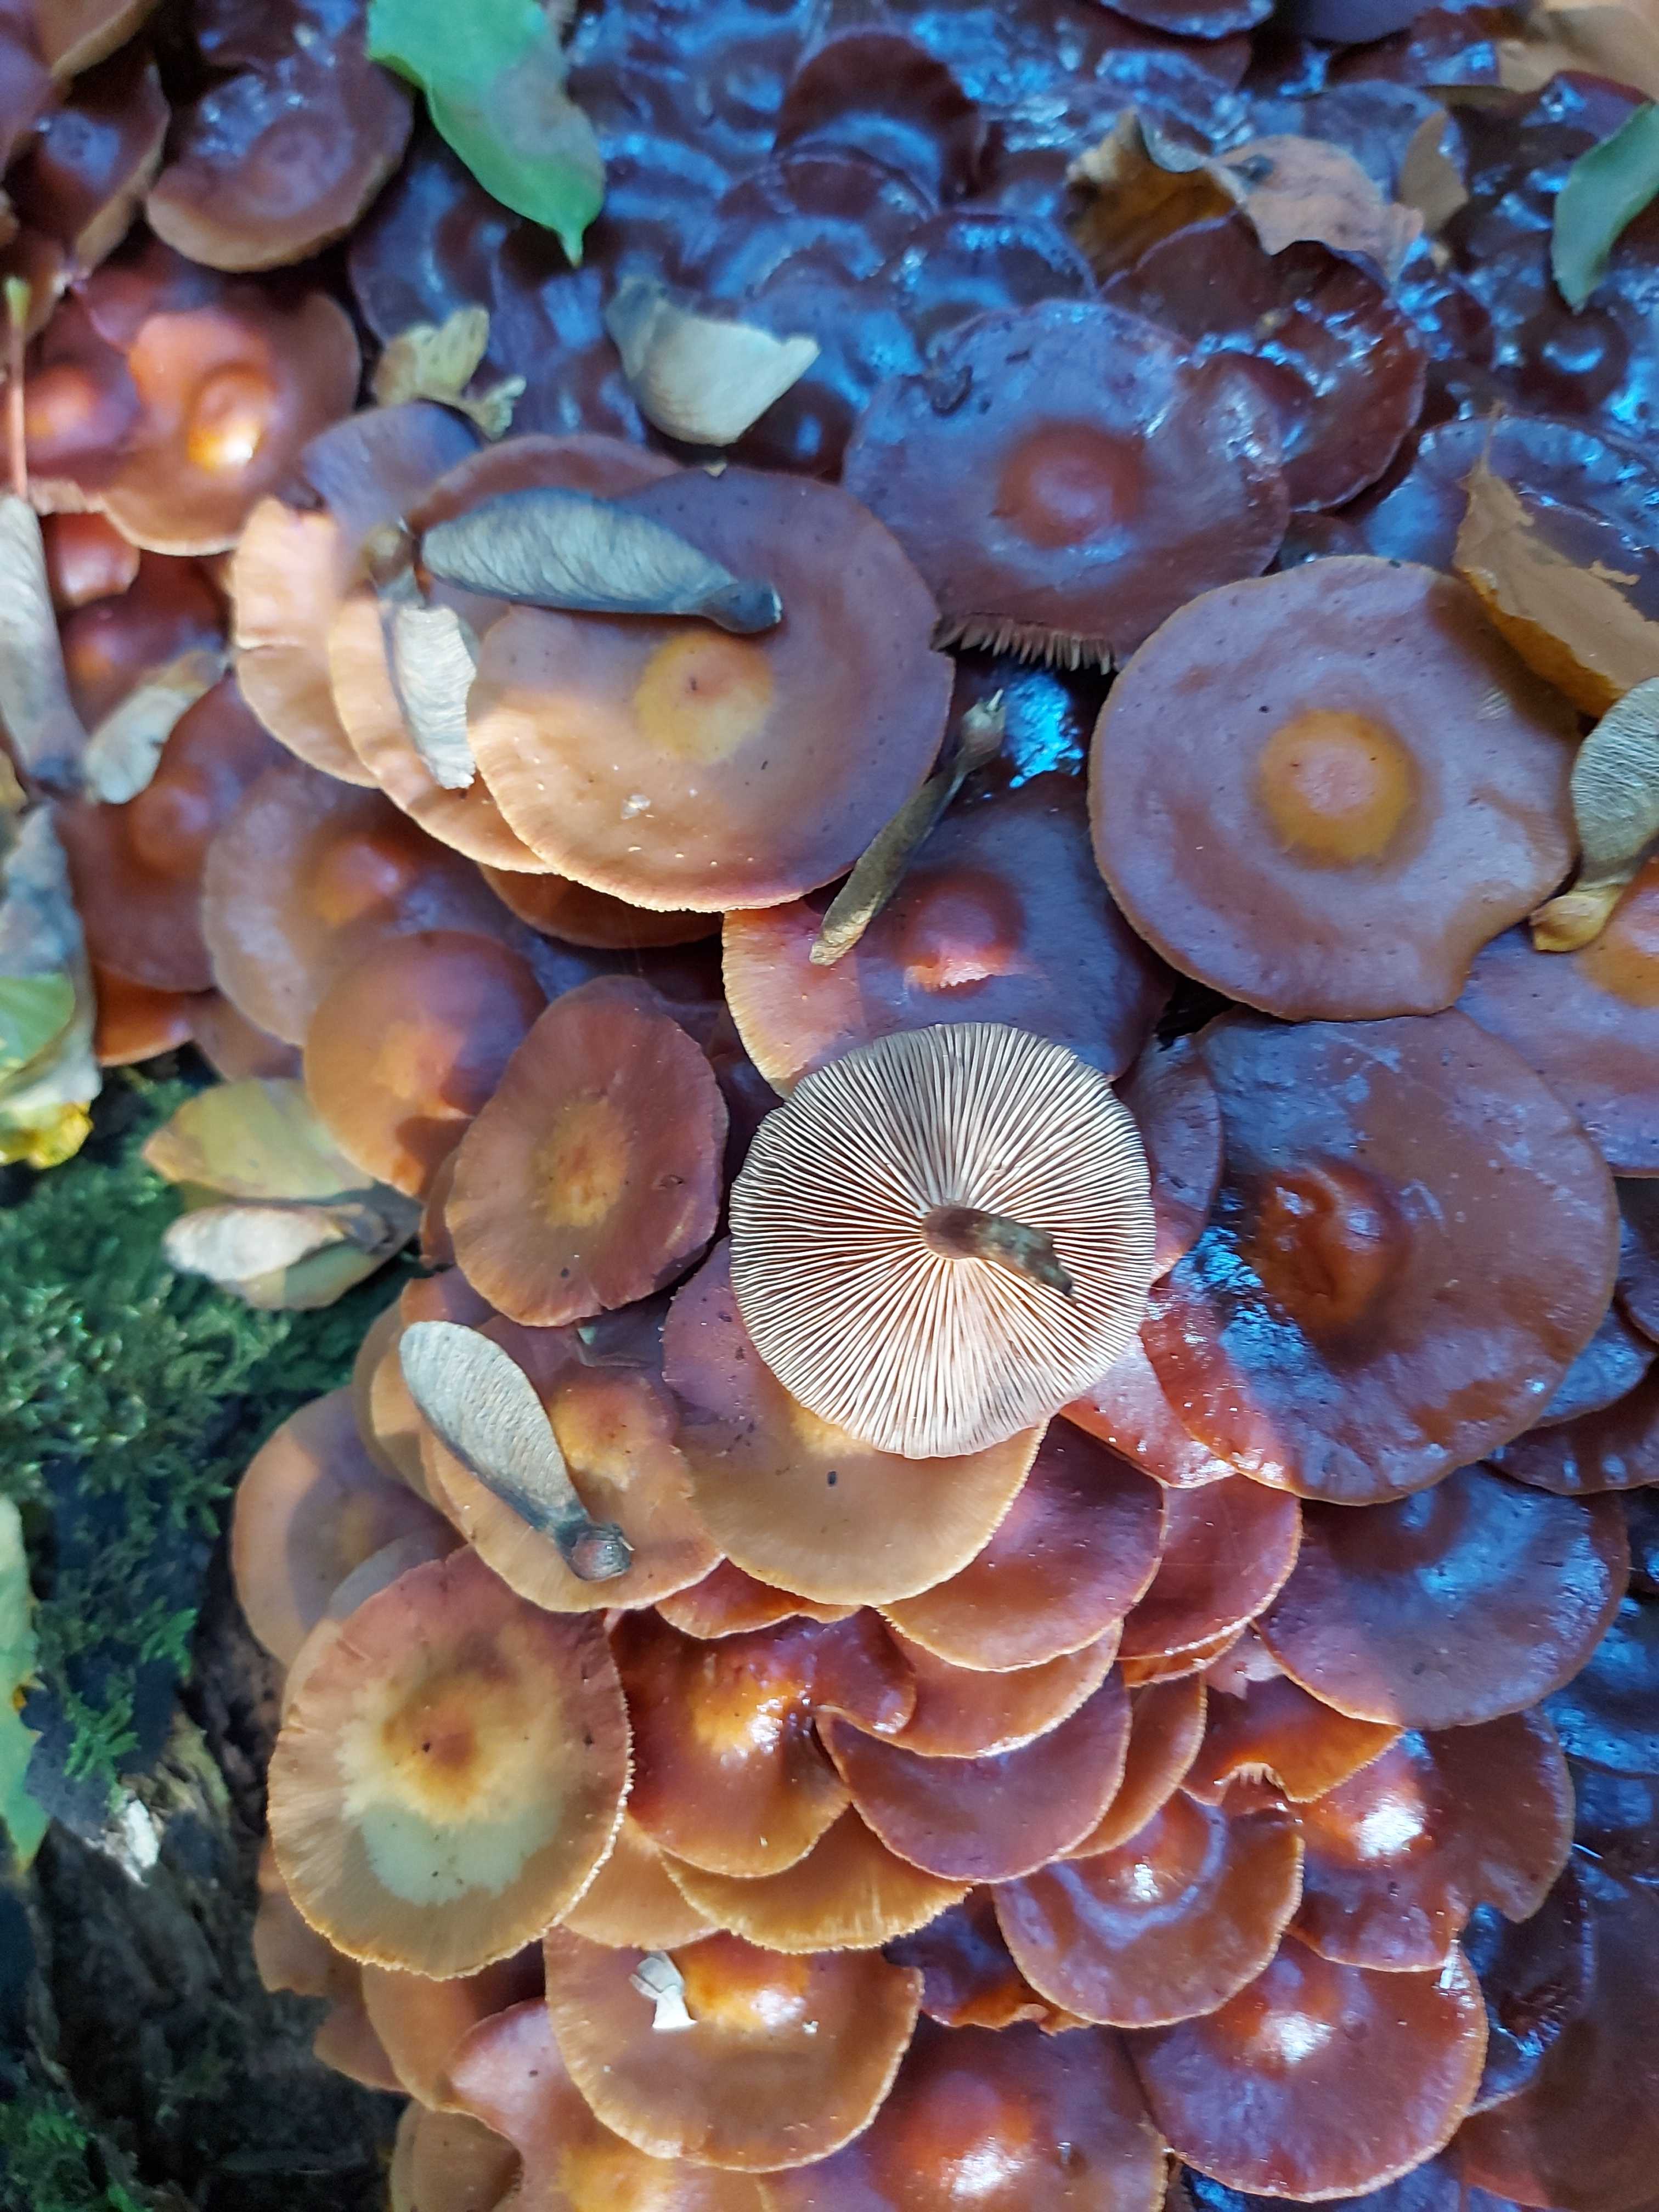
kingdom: Fungi
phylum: Basidiomycota
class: Agaricomycetes
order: Agaricales
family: Strophariaceae
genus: Kuehneromyces
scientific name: Kuehneromyces mutabilis
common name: foranderlig skælhat
